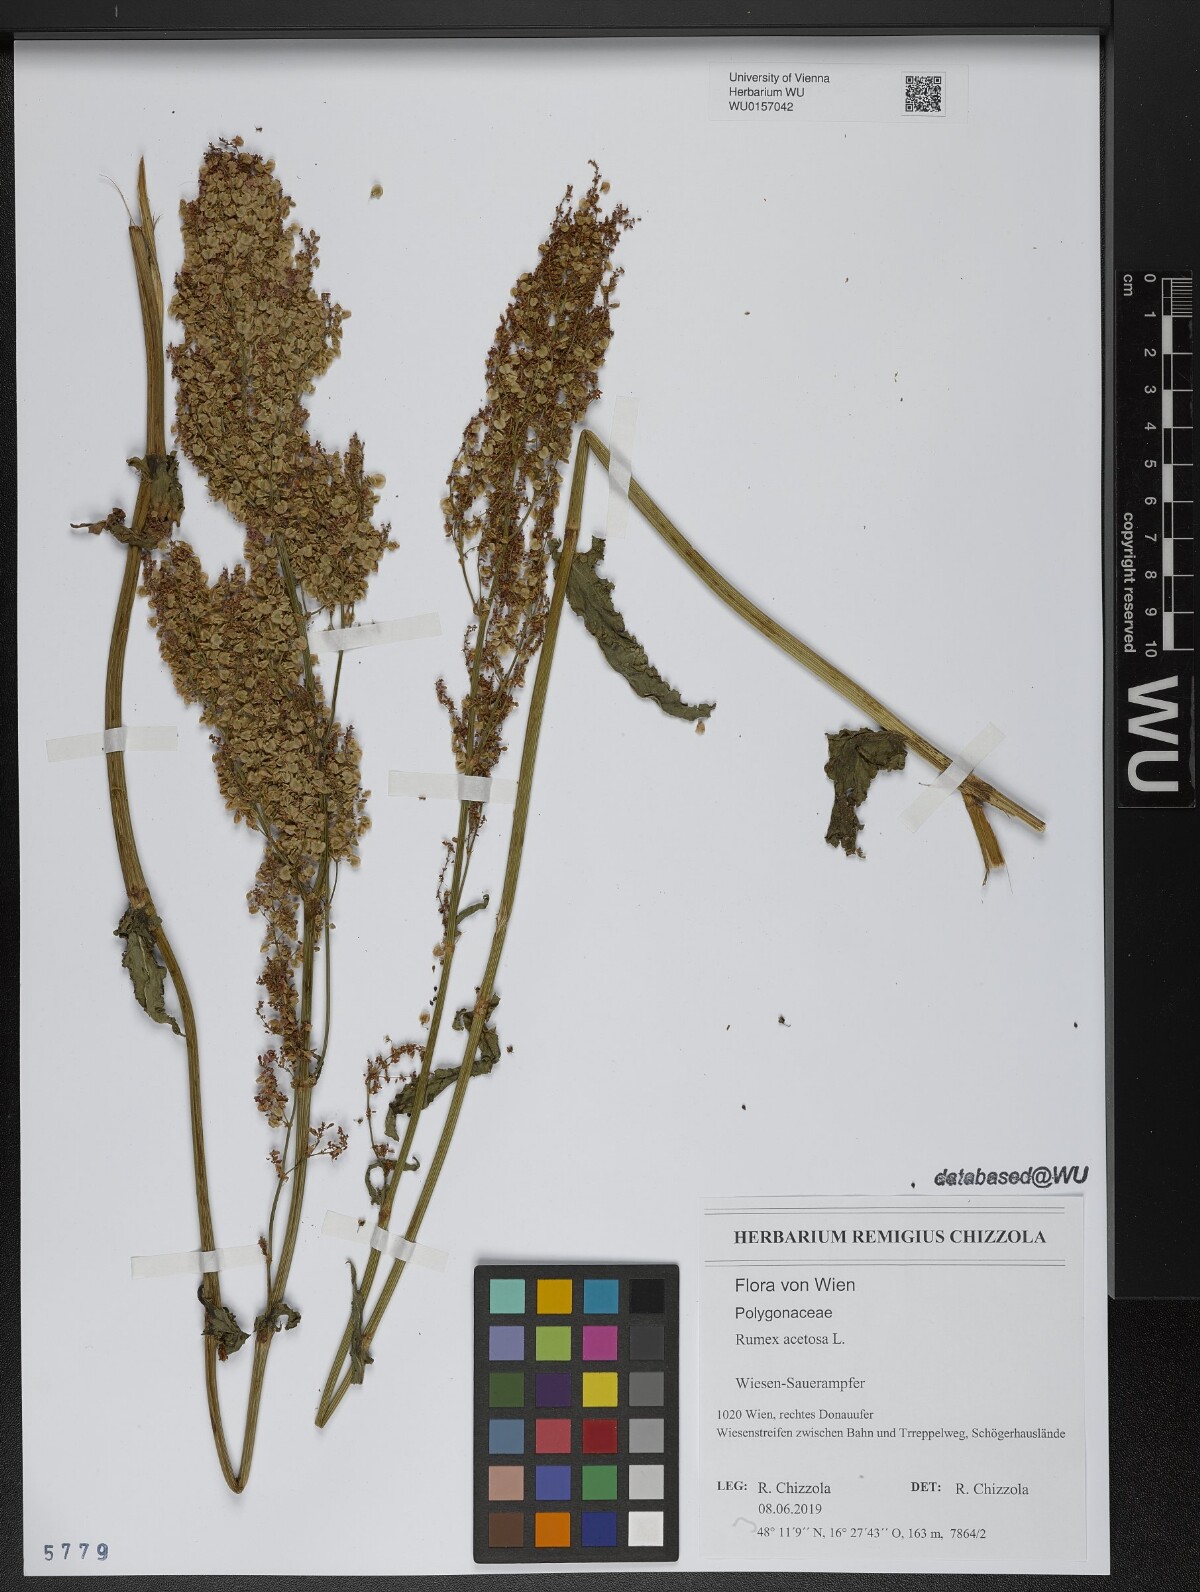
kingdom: Plantae
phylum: Tracheophyta
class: Magnoliopsida
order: Caryophyllales
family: Polygonaceae
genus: Rumex
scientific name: Rumex acetosa
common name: Garden sorrel
